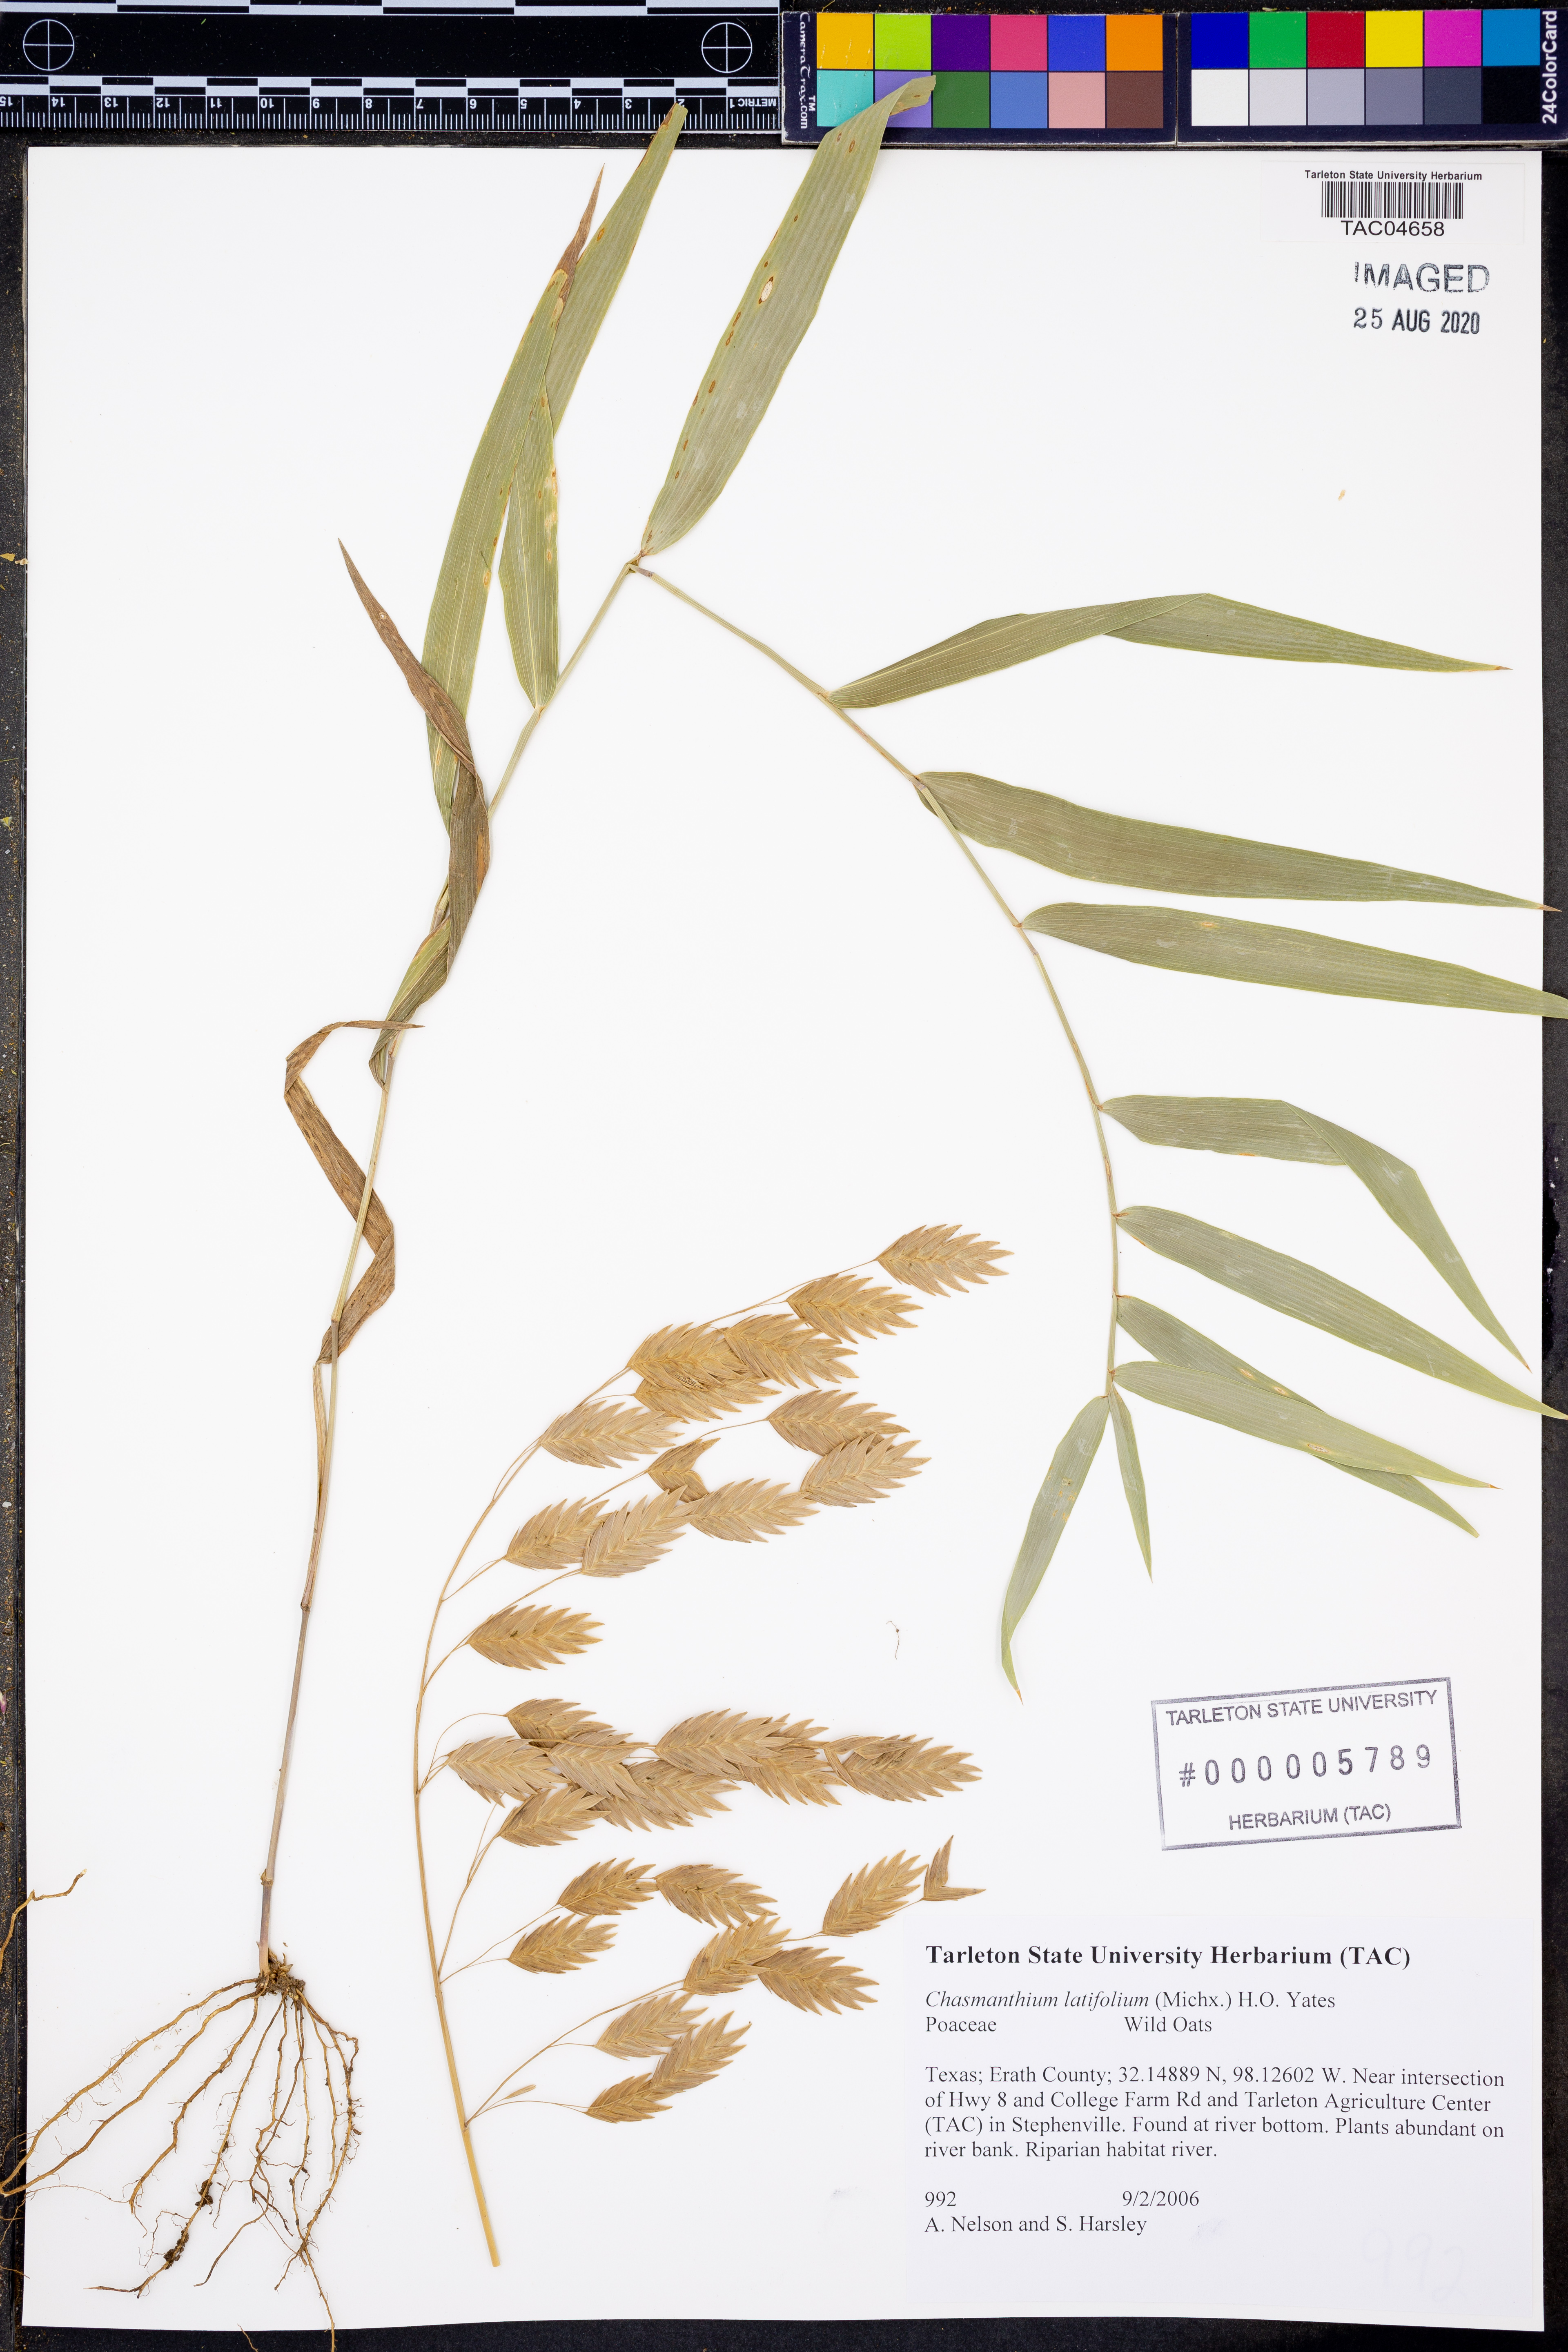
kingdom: Plantae
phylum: Tracheophyta
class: Liliopsida
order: Poales
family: Poaceae
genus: Chasmanthium
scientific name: Chasmanthium latifolium
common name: Broad-leaved chasmanthium
